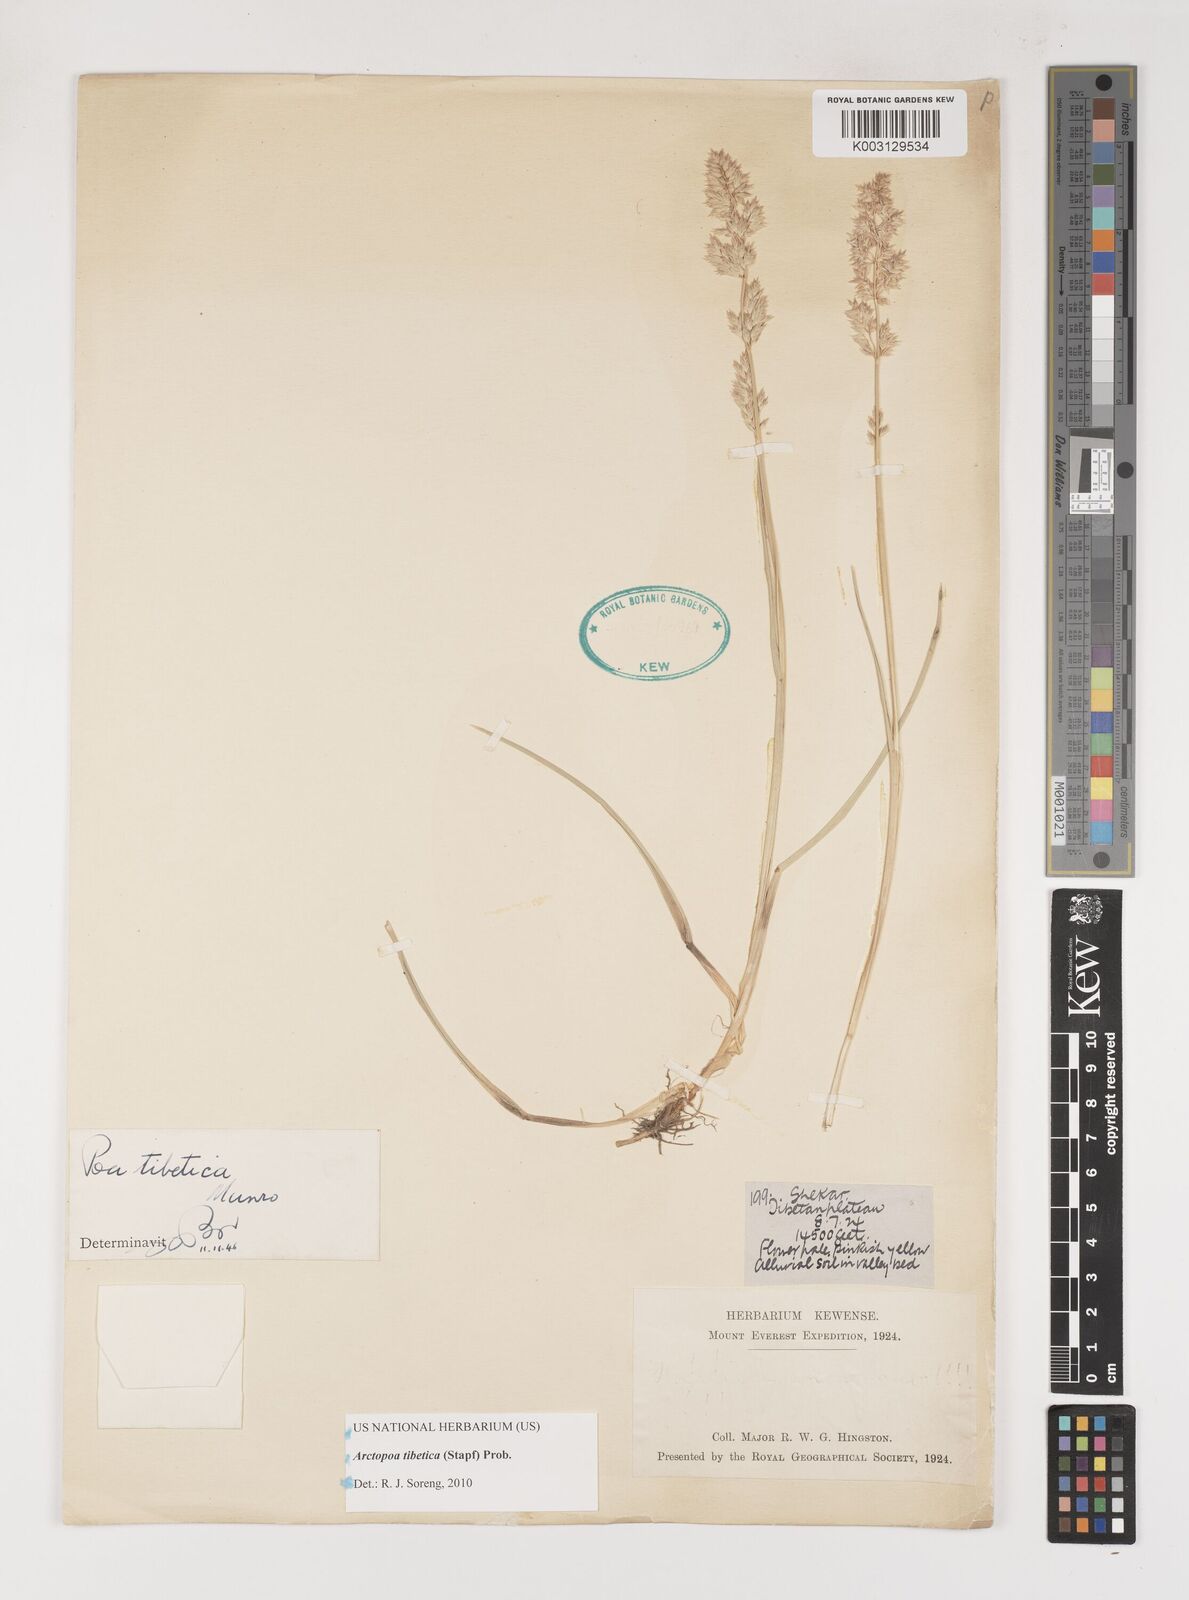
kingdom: Plantae
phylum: Tracheophyta
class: Liliopsida
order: Poales
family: Poaceae
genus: Arctopoa
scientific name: Arctopoa tibetica
